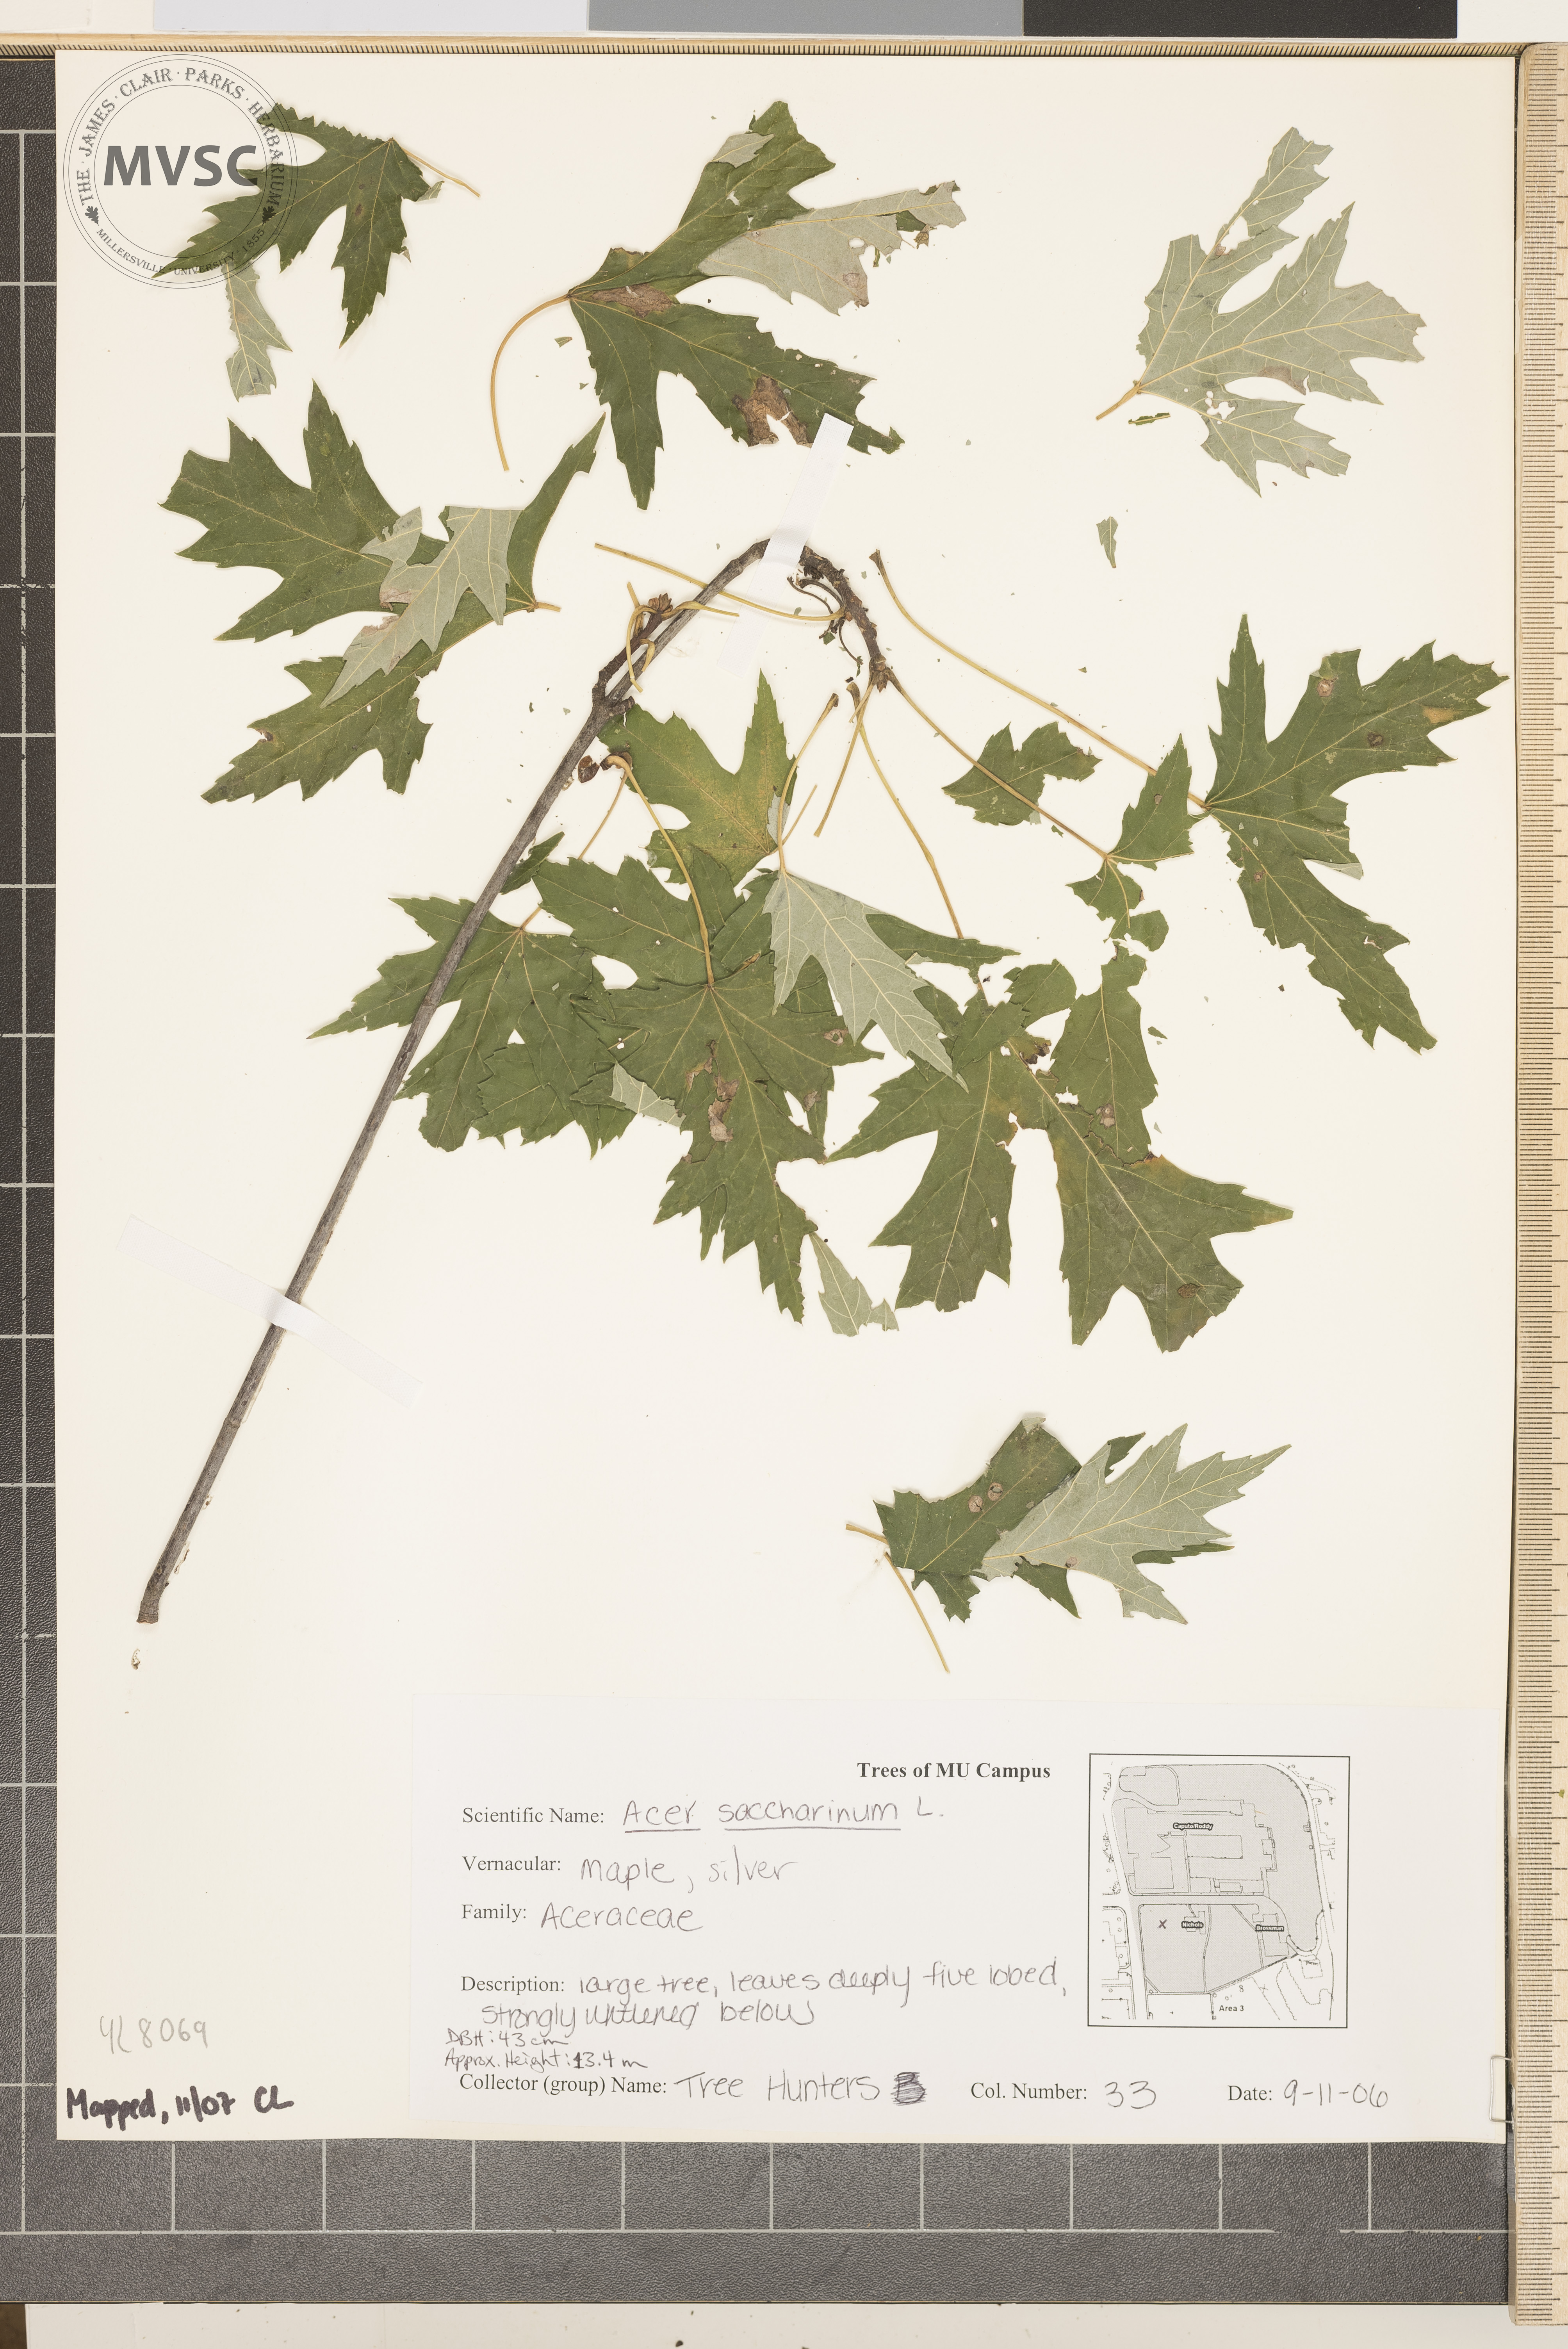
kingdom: Plantae
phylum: Tracheophyta
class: Magnoliopsida
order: Sapindales
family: Sapindaceae
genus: Acer
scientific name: Acer saccharinum
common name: Silver Maple
